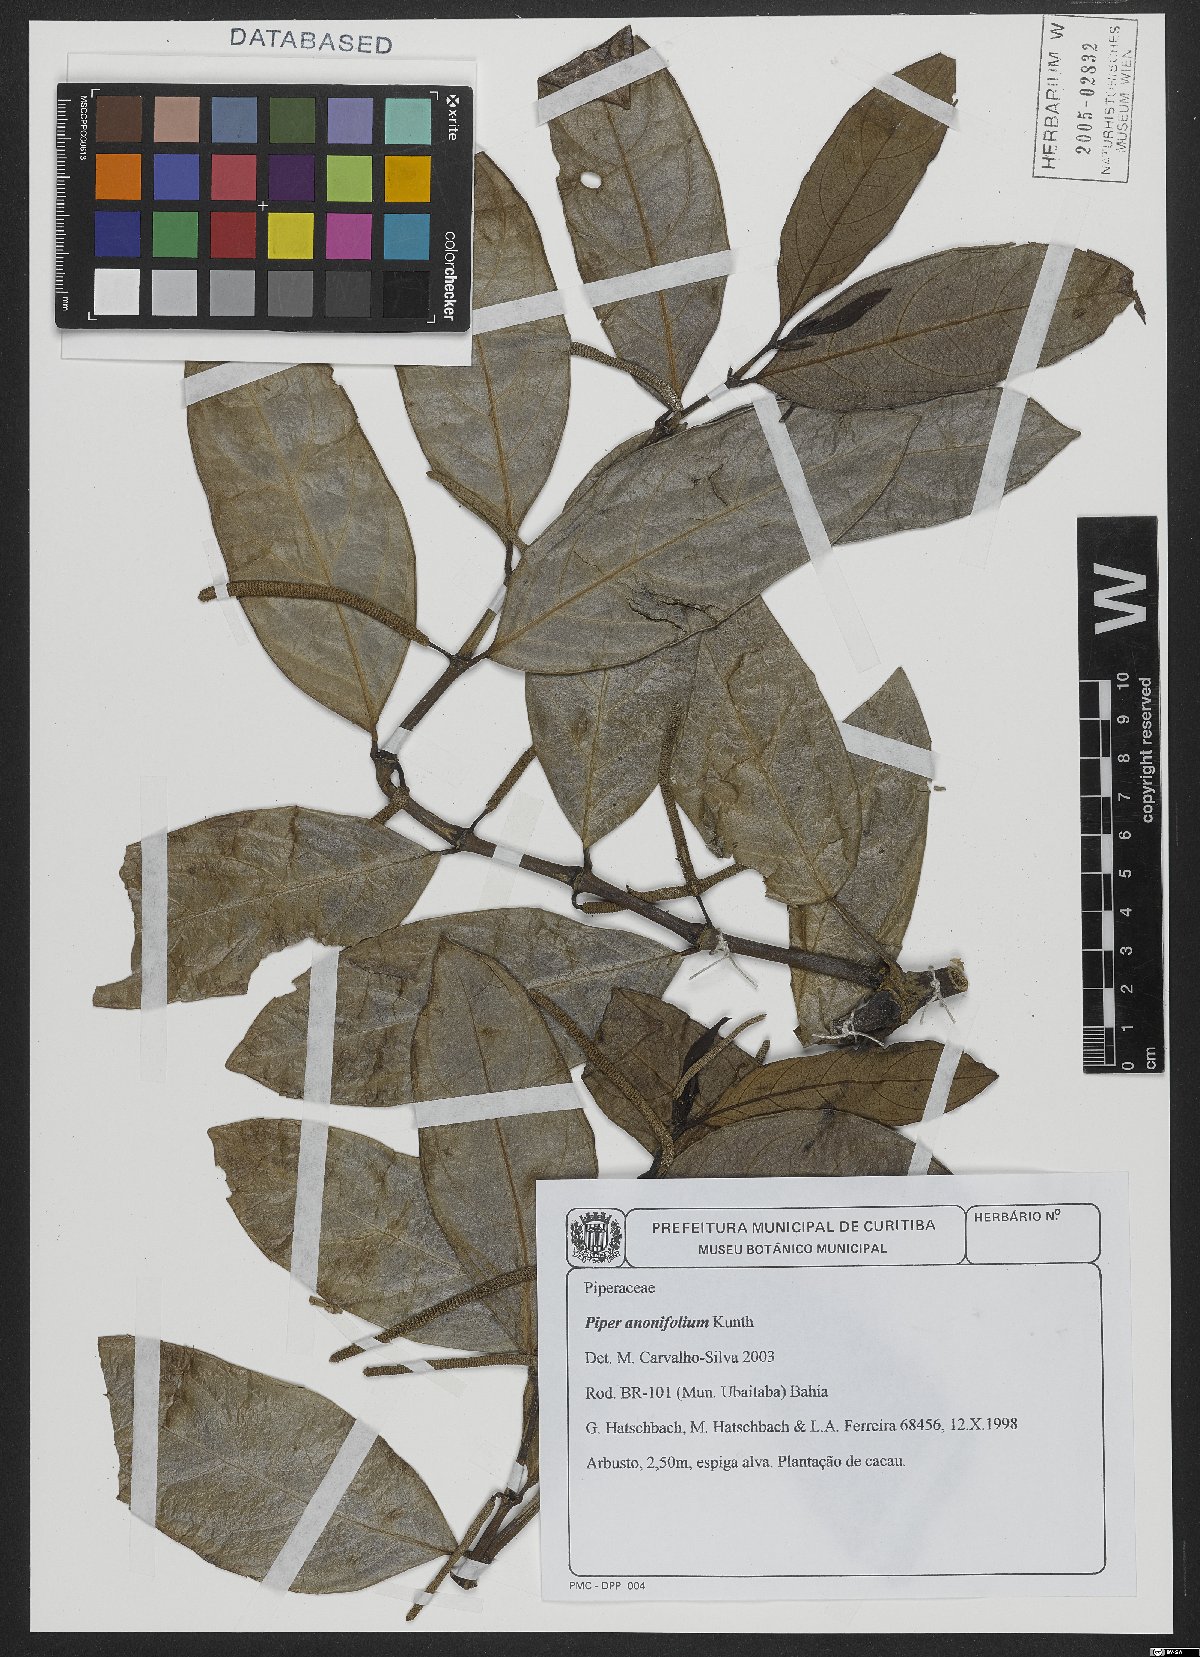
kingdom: Plantae
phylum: Tracheophyta
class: Magnoliopsida
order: Piperales
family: Piperaceae
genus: Piper
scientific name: Piper anonifolium
